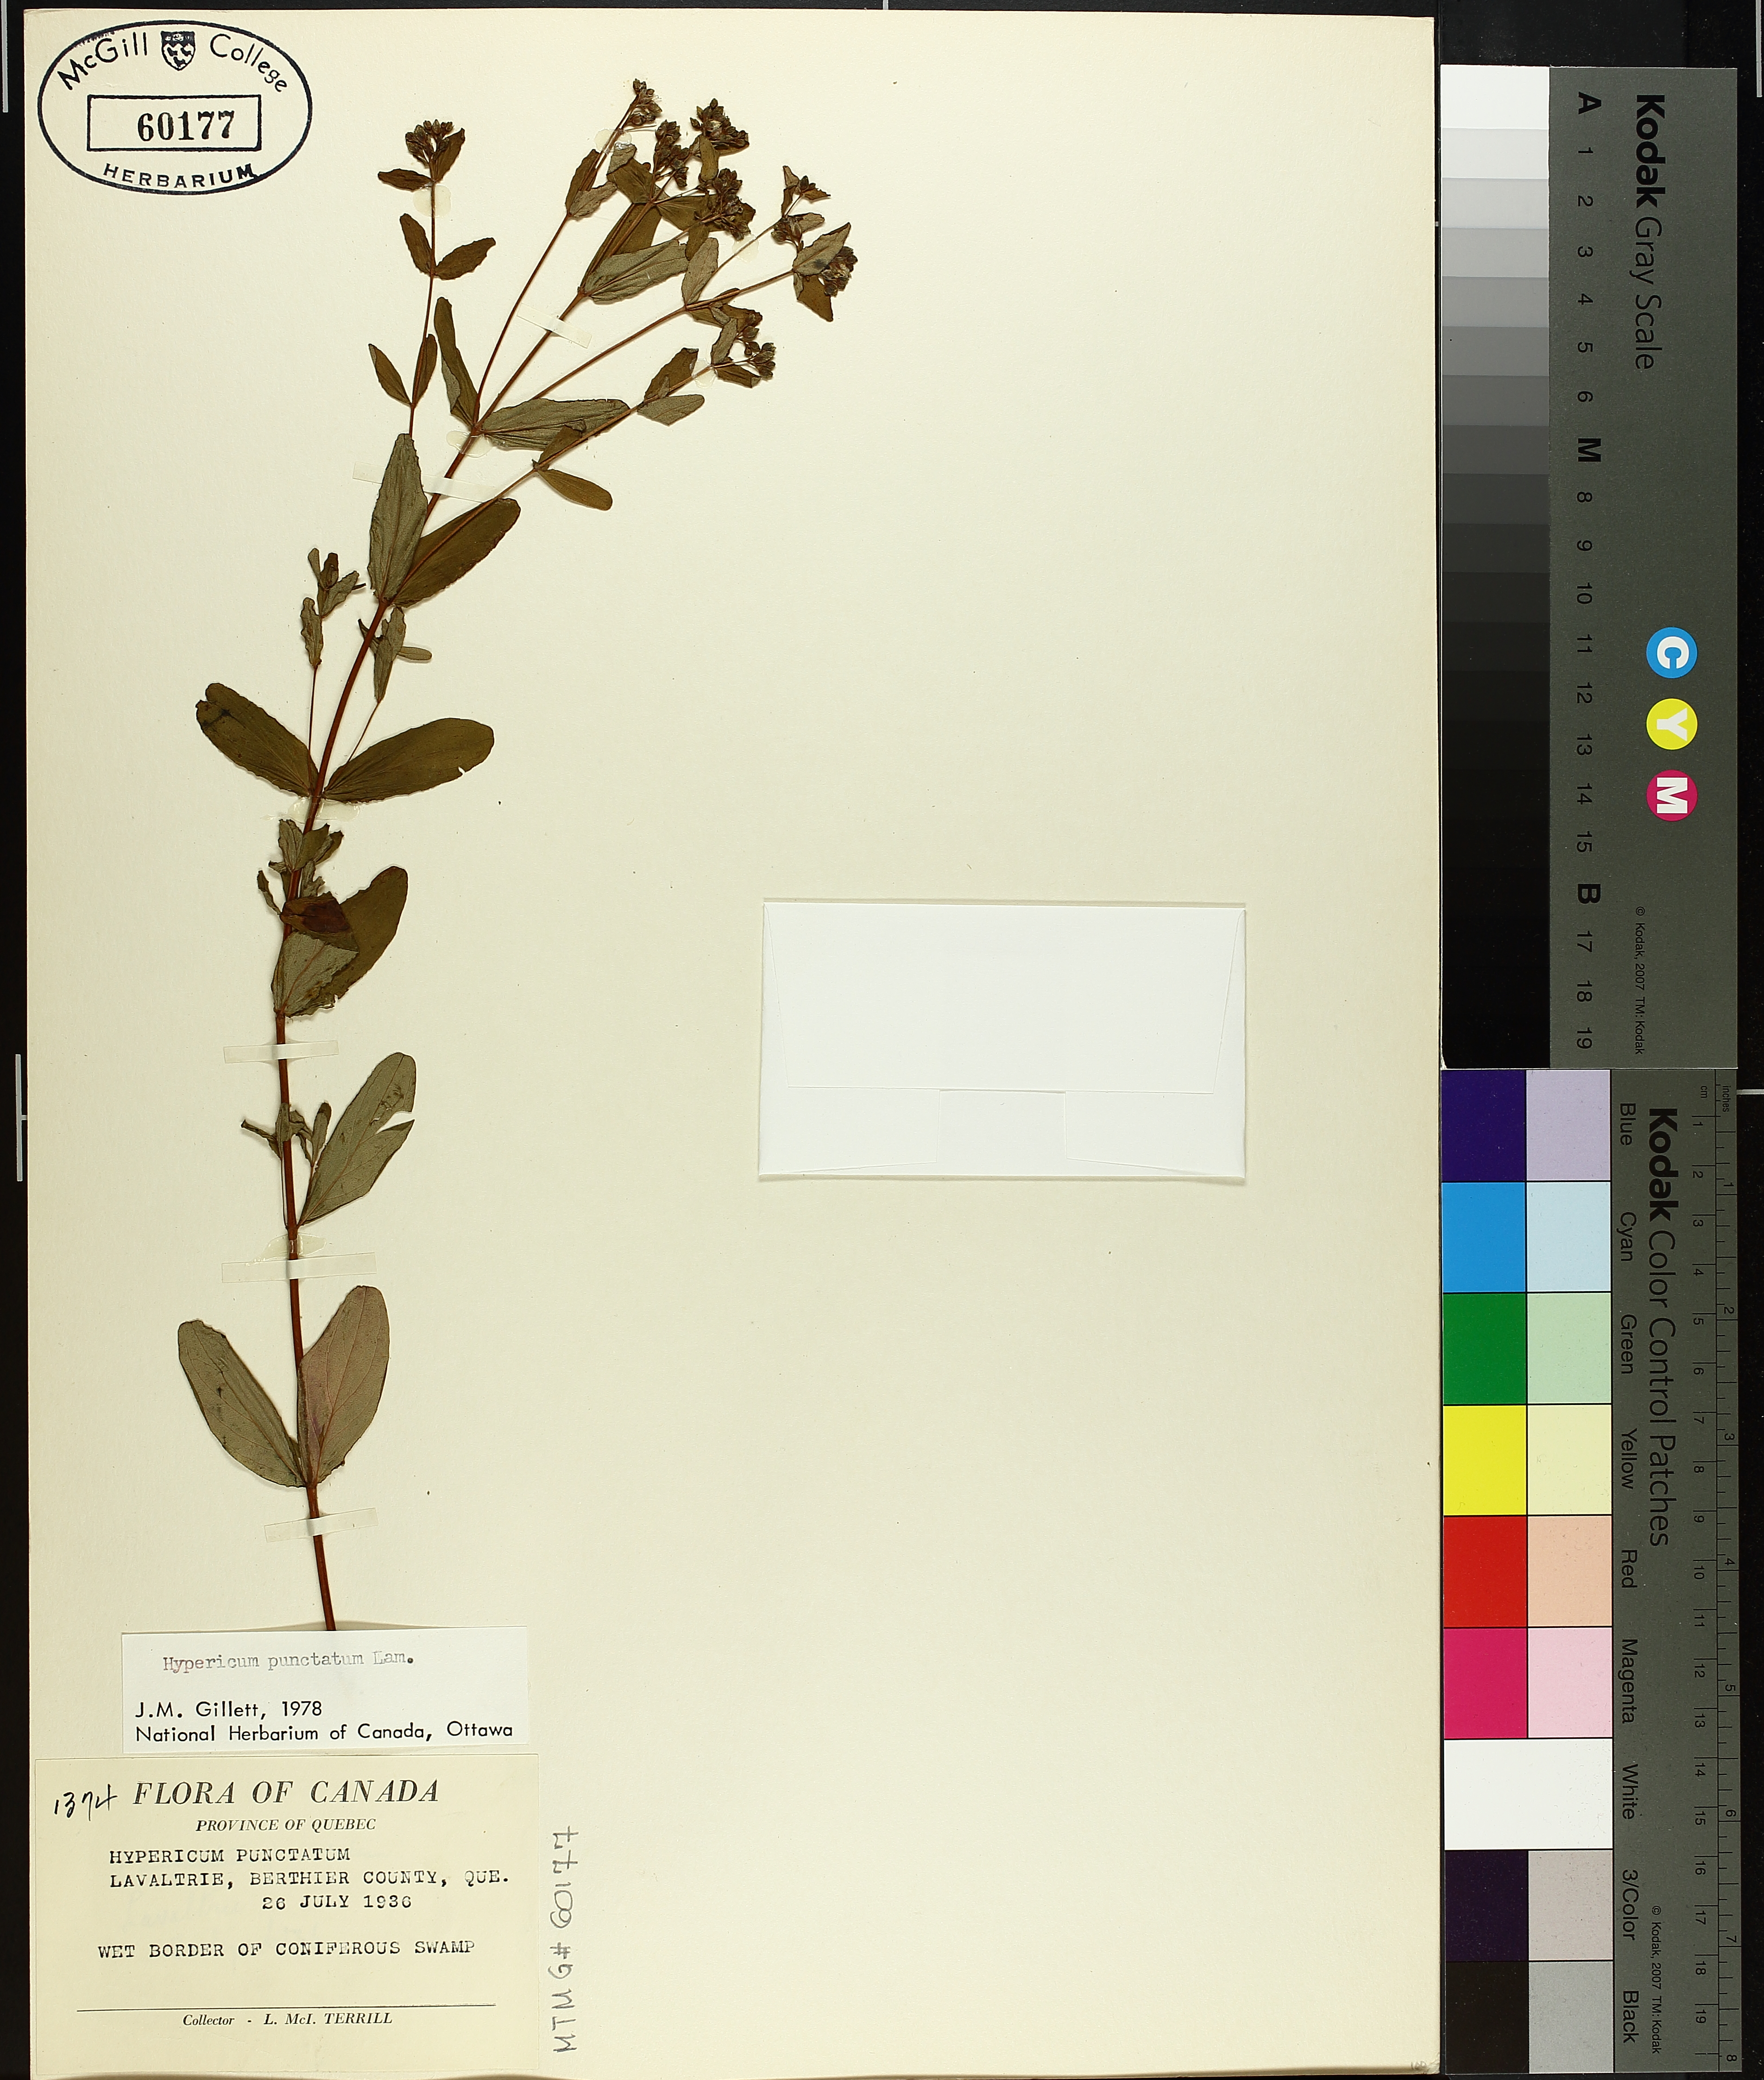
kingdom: Plantae
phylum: Tracheophyta
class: Magnoliopsida
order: Malpighiales
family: Hypericaceae
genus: Hypericum
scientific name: Hypericum punctatum
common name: Spotted st. john's-wort
